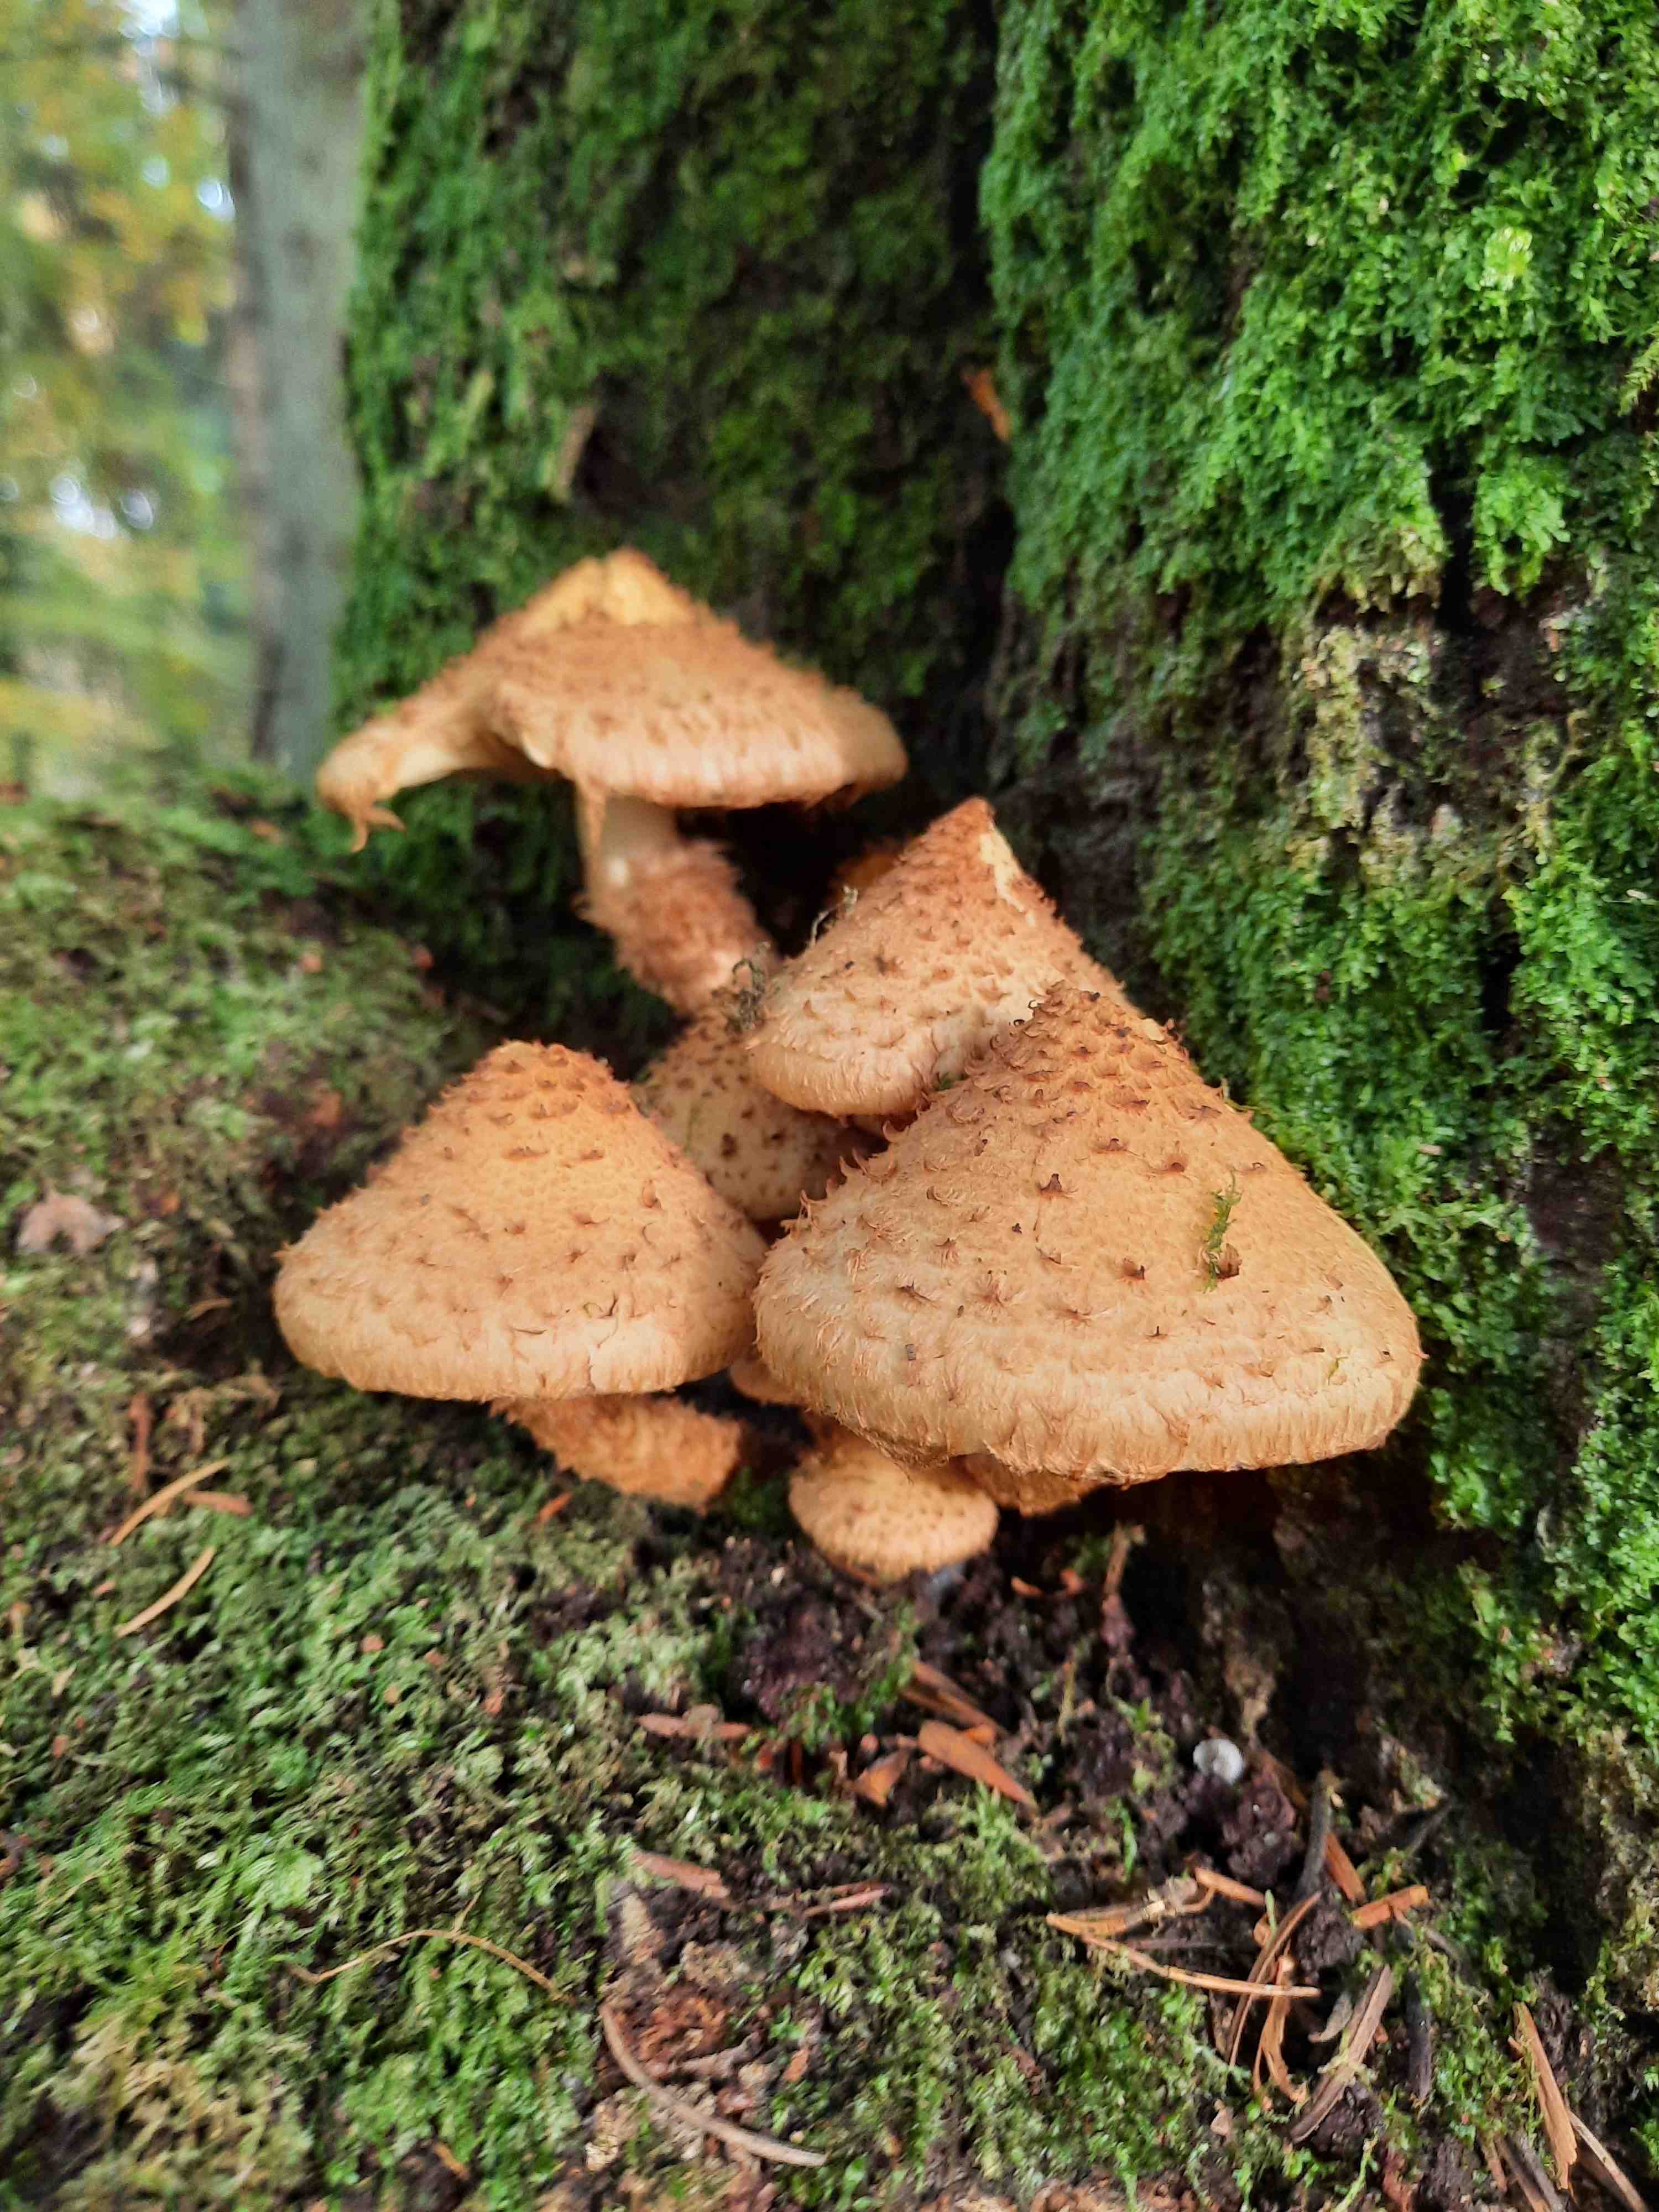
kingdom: Fungi
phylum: Basidiomycota
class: Agaricomycetes
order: Agaricales
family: Strophariaceae
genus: Pholiota
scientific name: Pholiota squarrosa
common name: krumskællet skælhat
